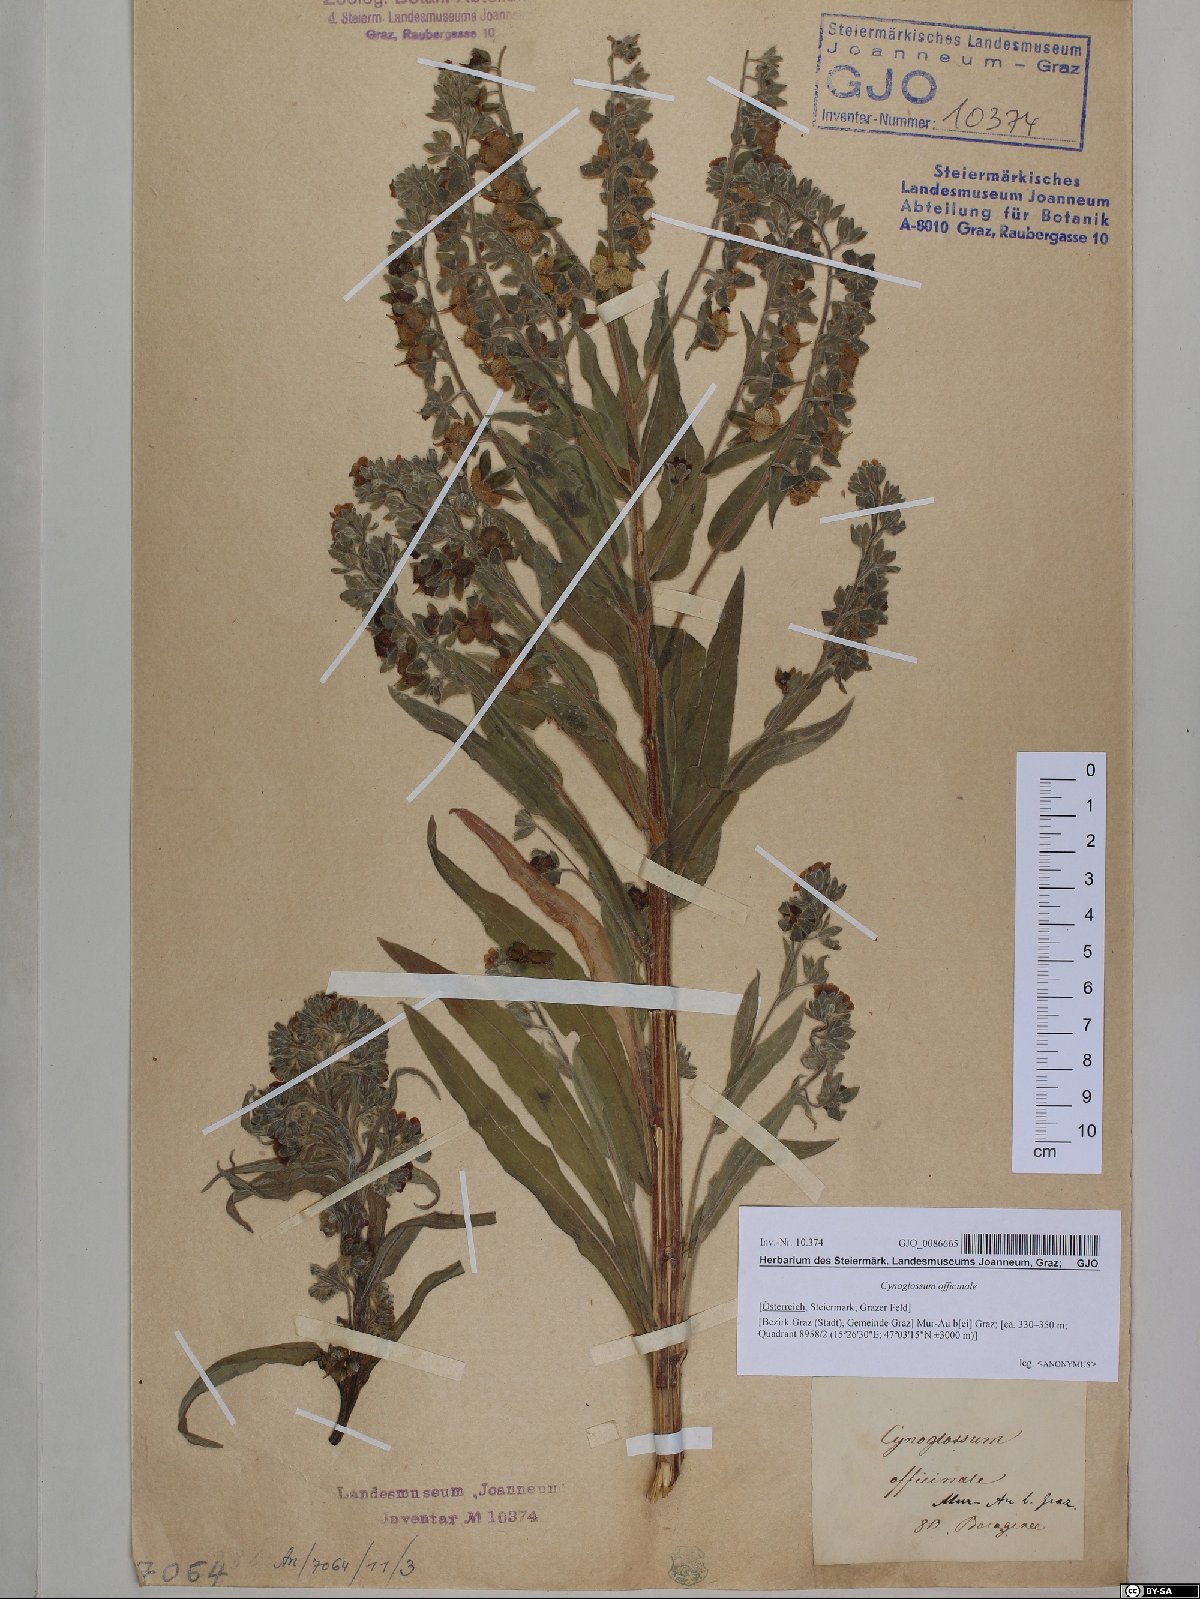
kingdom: Plantae
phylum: Tracheophyta
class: Magnoliopsida
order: Boraginales
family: Boraginaceae
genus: Cynoglossum
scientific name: Cynoglossum officinale
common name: Hound's-tongue
